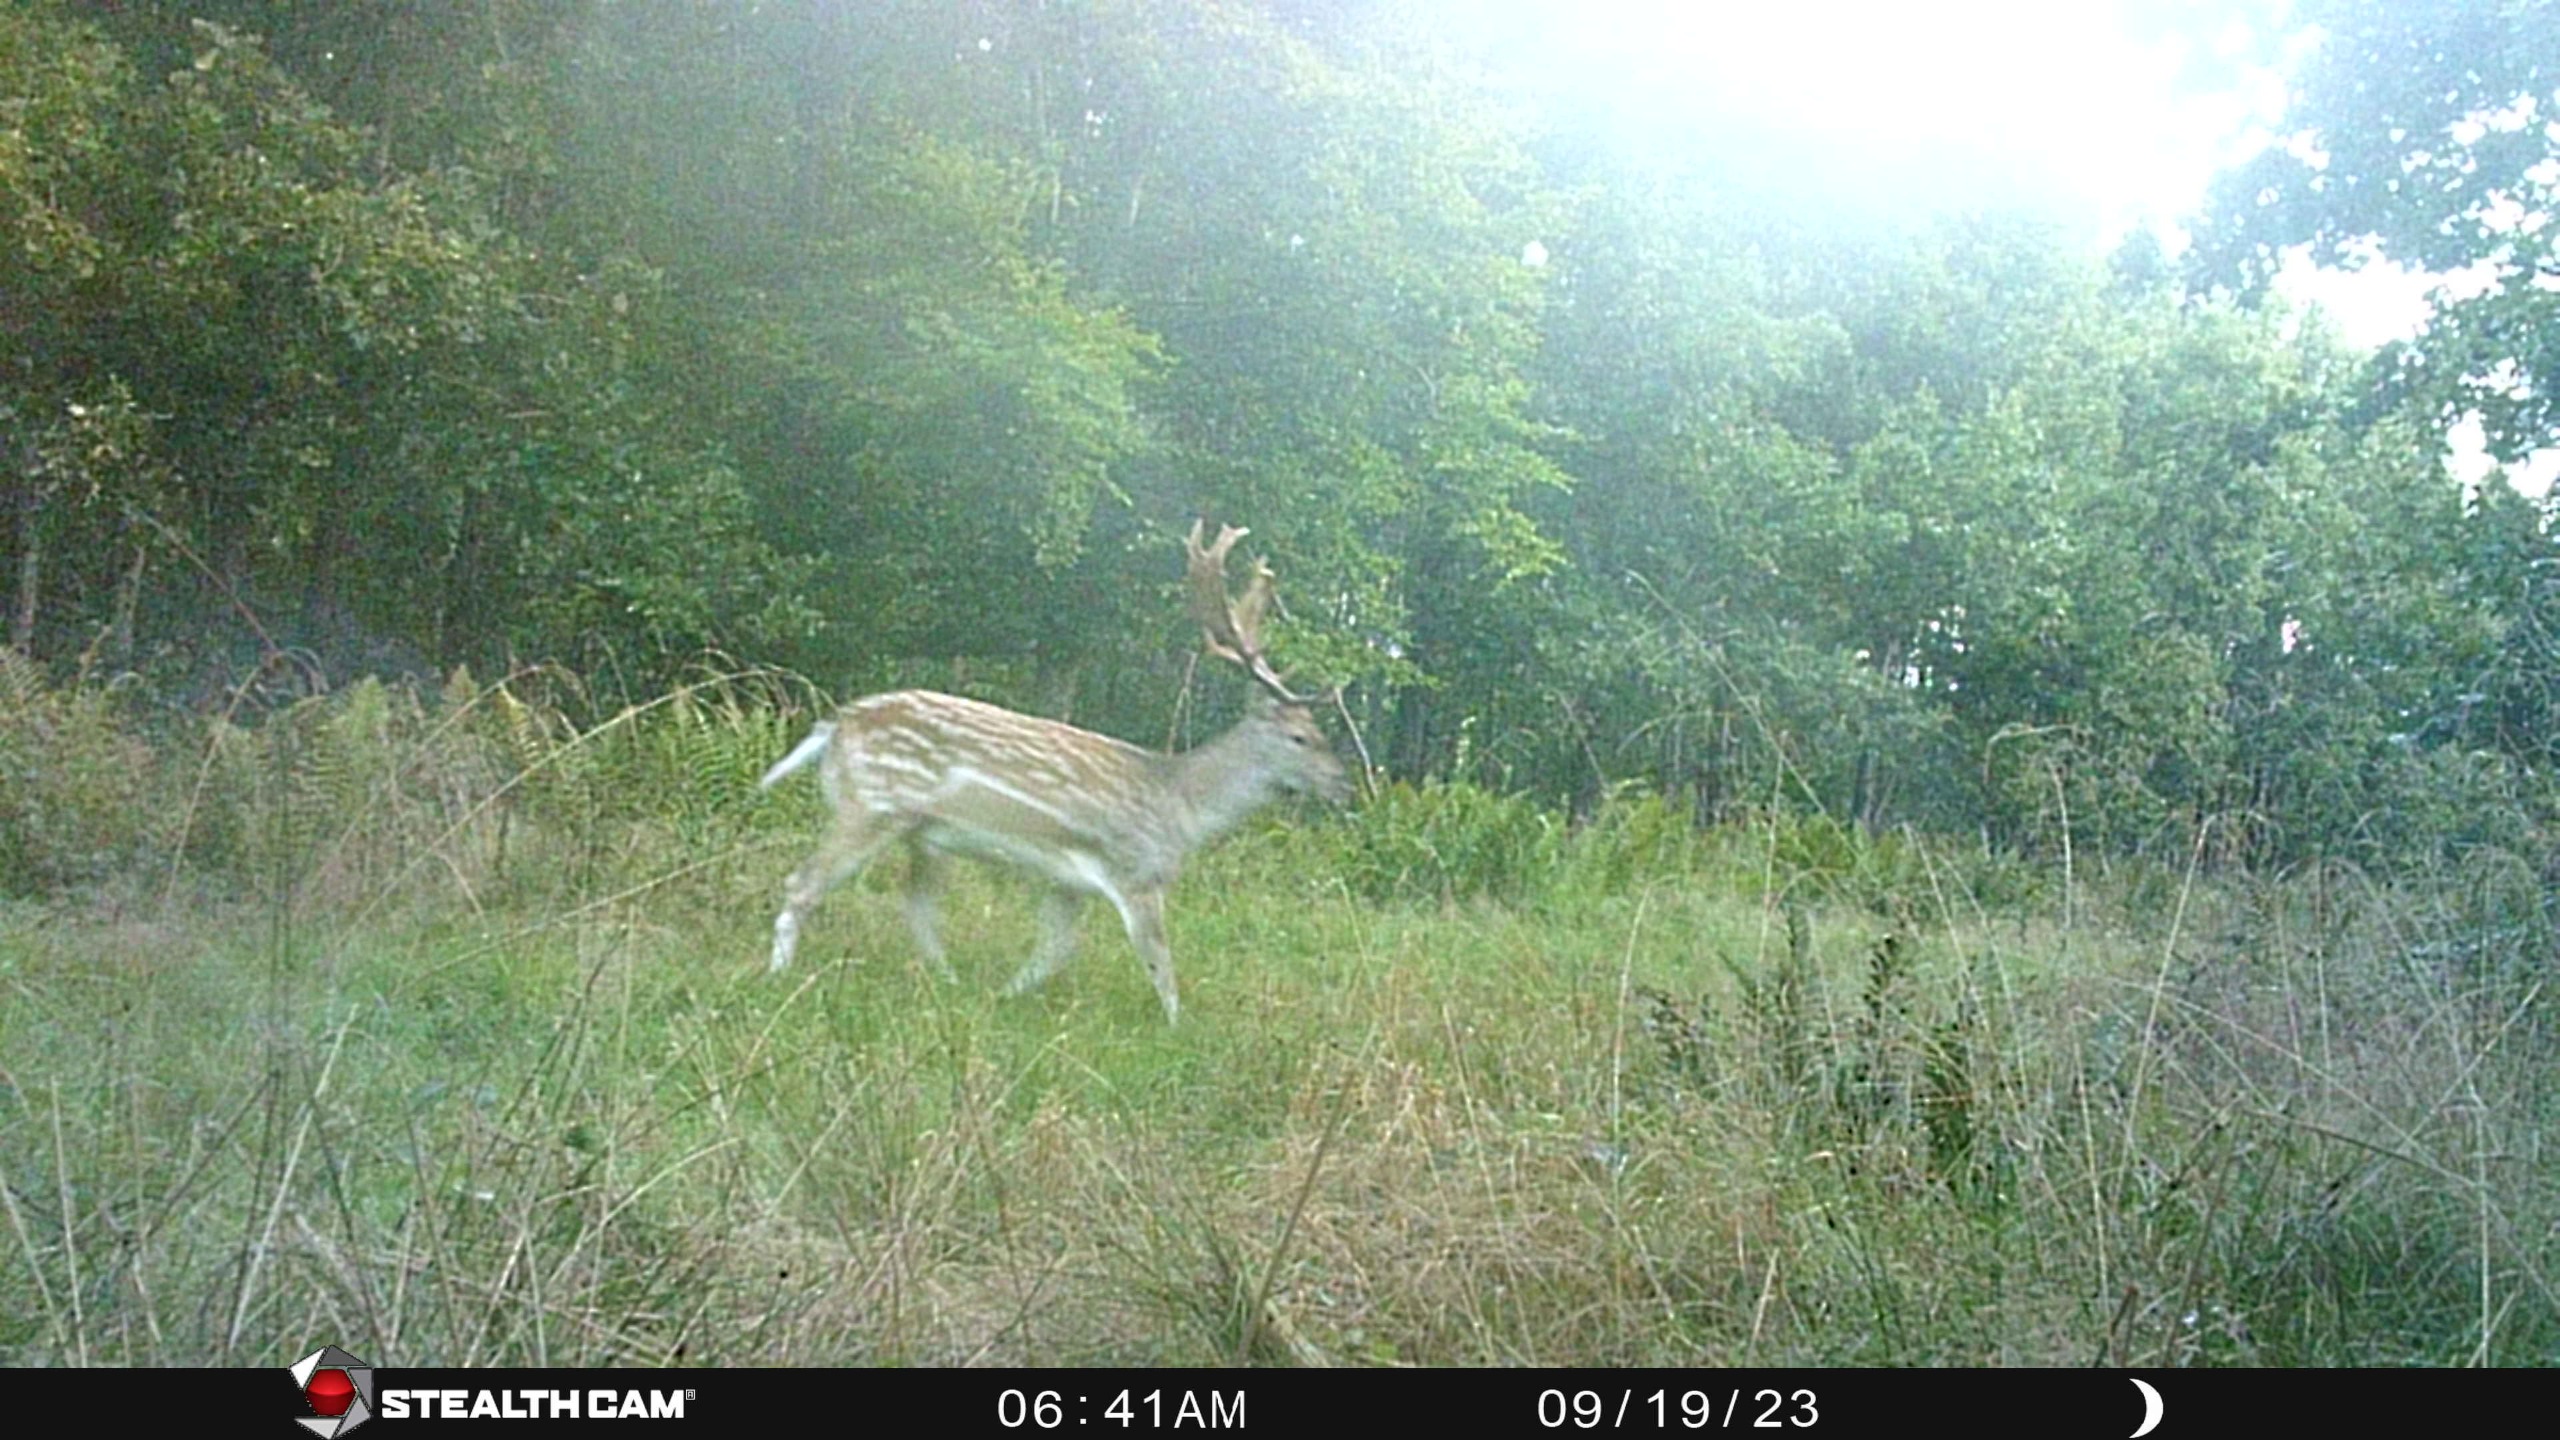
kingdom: Animalia
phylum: Chordata
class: Mammalia
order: Artiodactyla
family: Cervidae
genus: Dama
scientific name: Dama dama
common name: Dådyr
